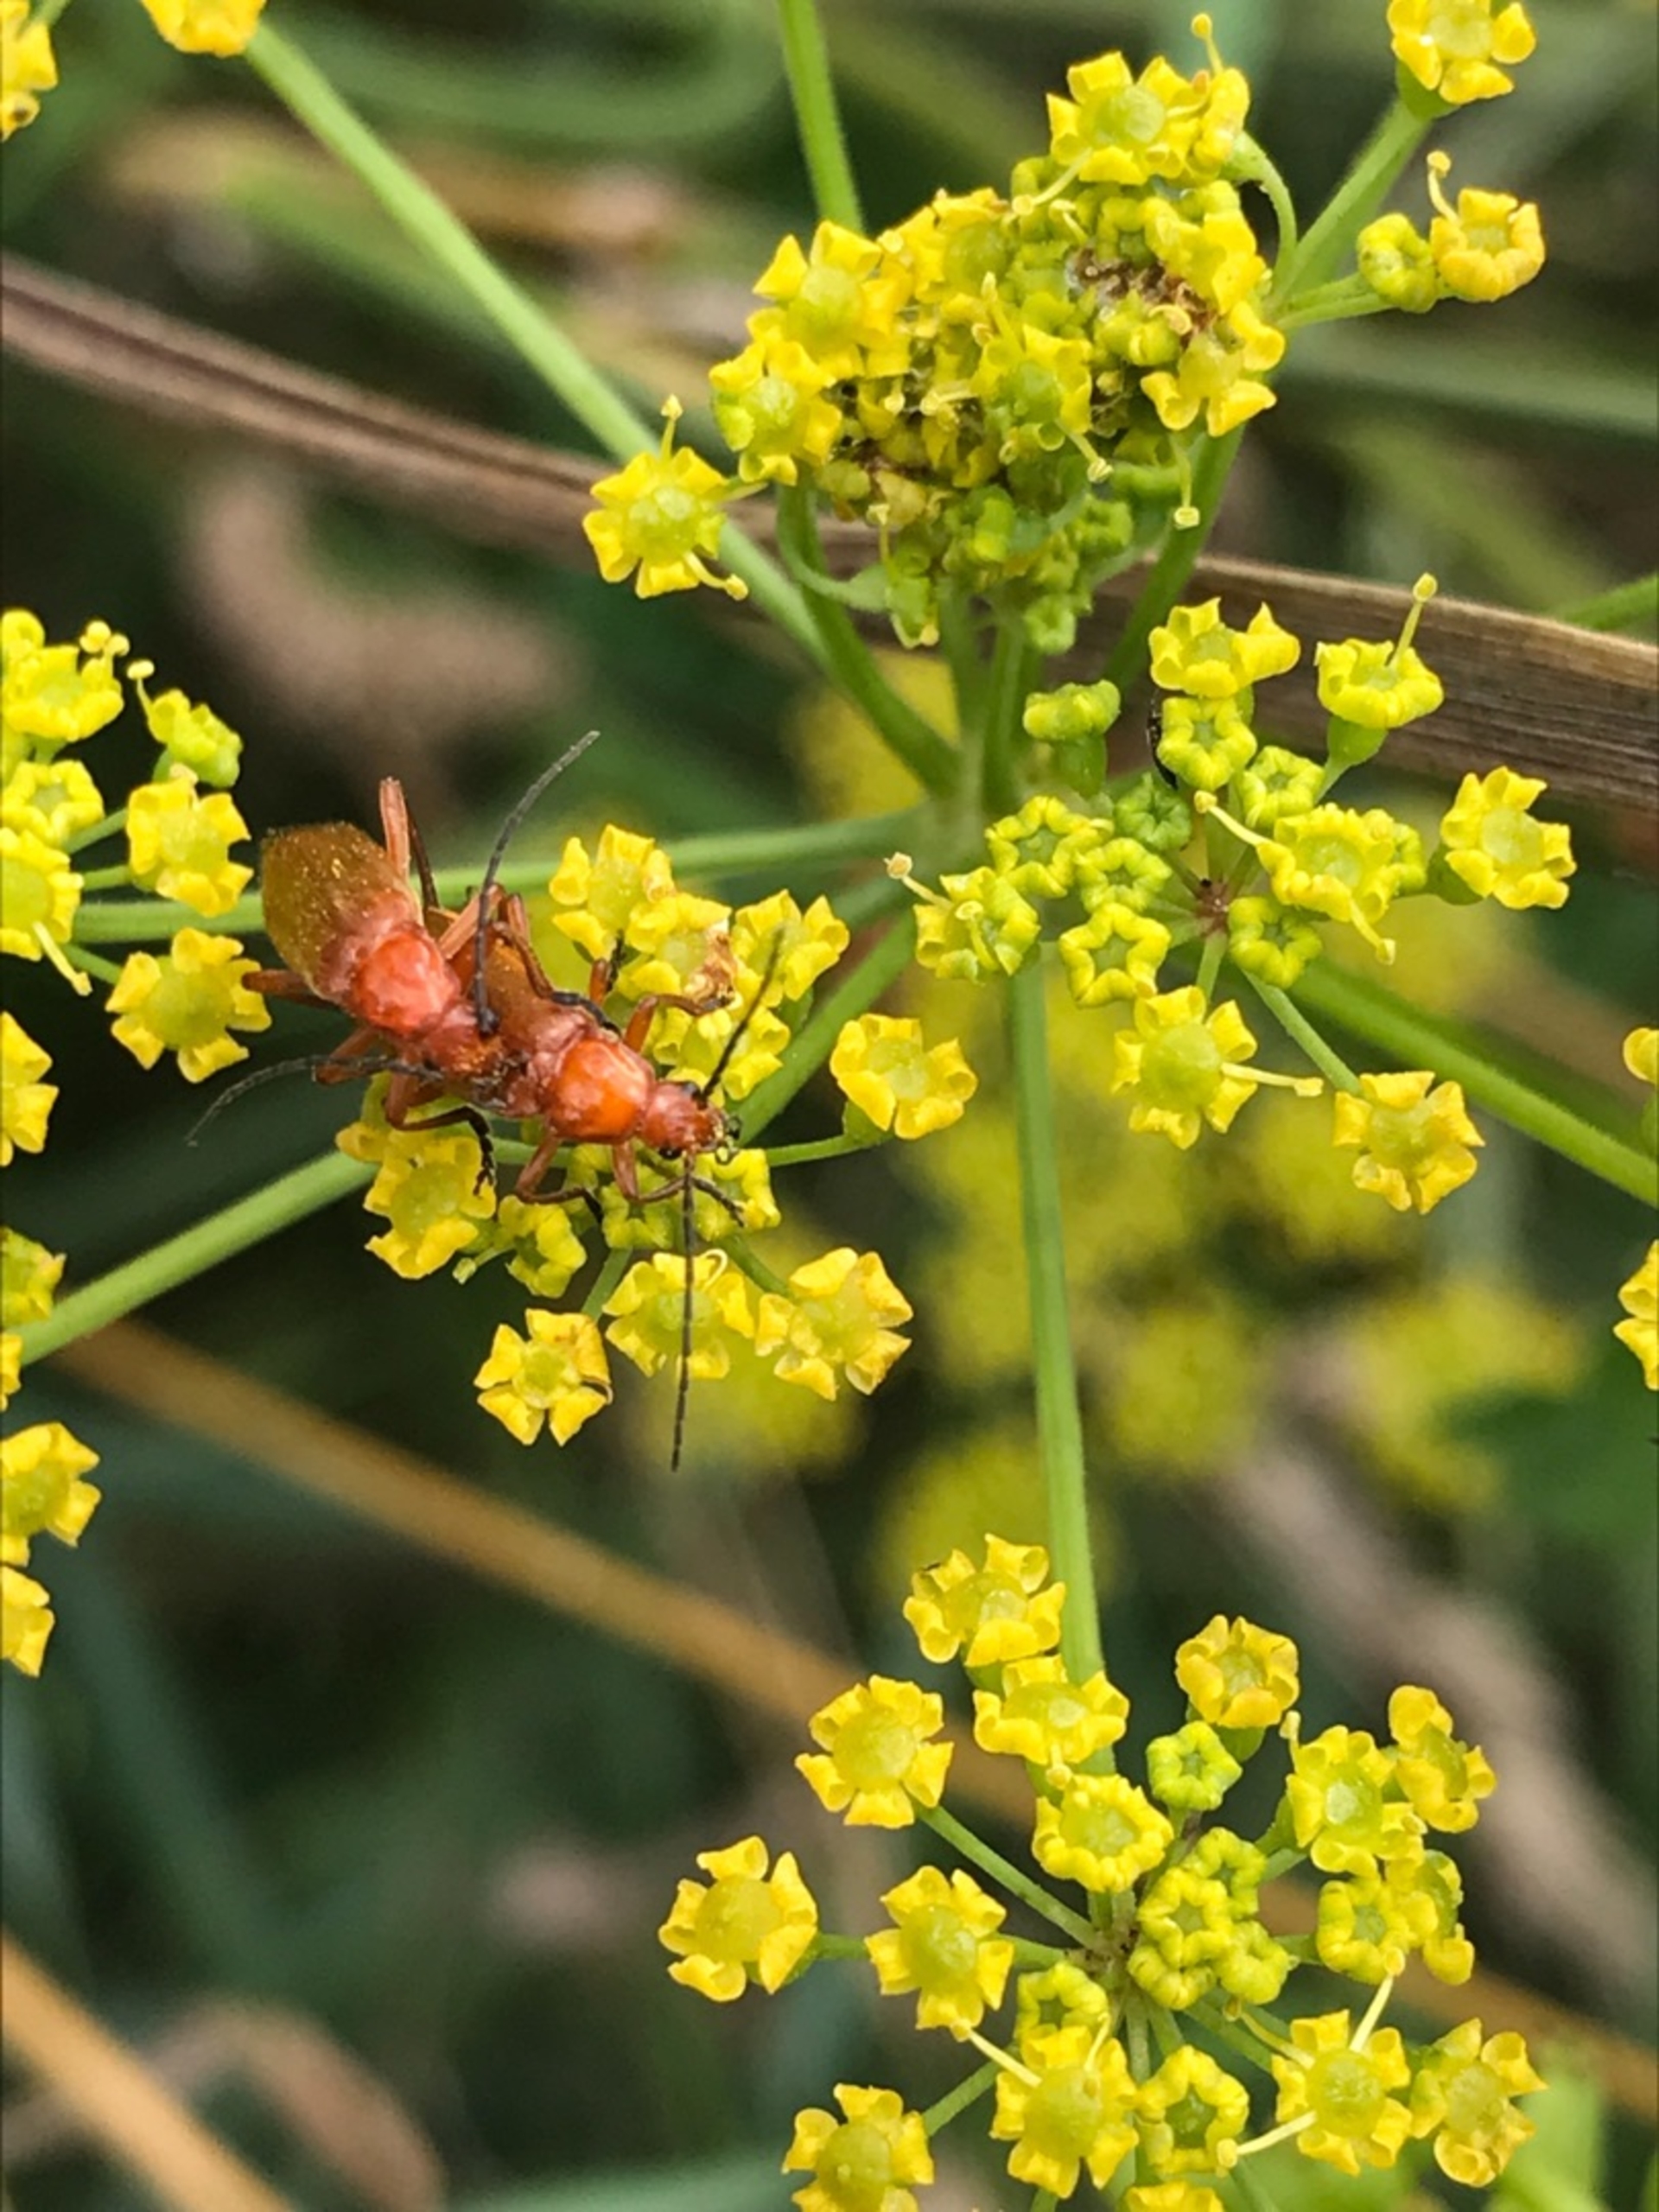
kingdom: Animalia
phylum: Arthropoda
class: Insecta
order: Coleoptera
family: Cantharidae
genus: Rhagonycha
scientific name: Rhagonycha fulva
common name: Præstebille
